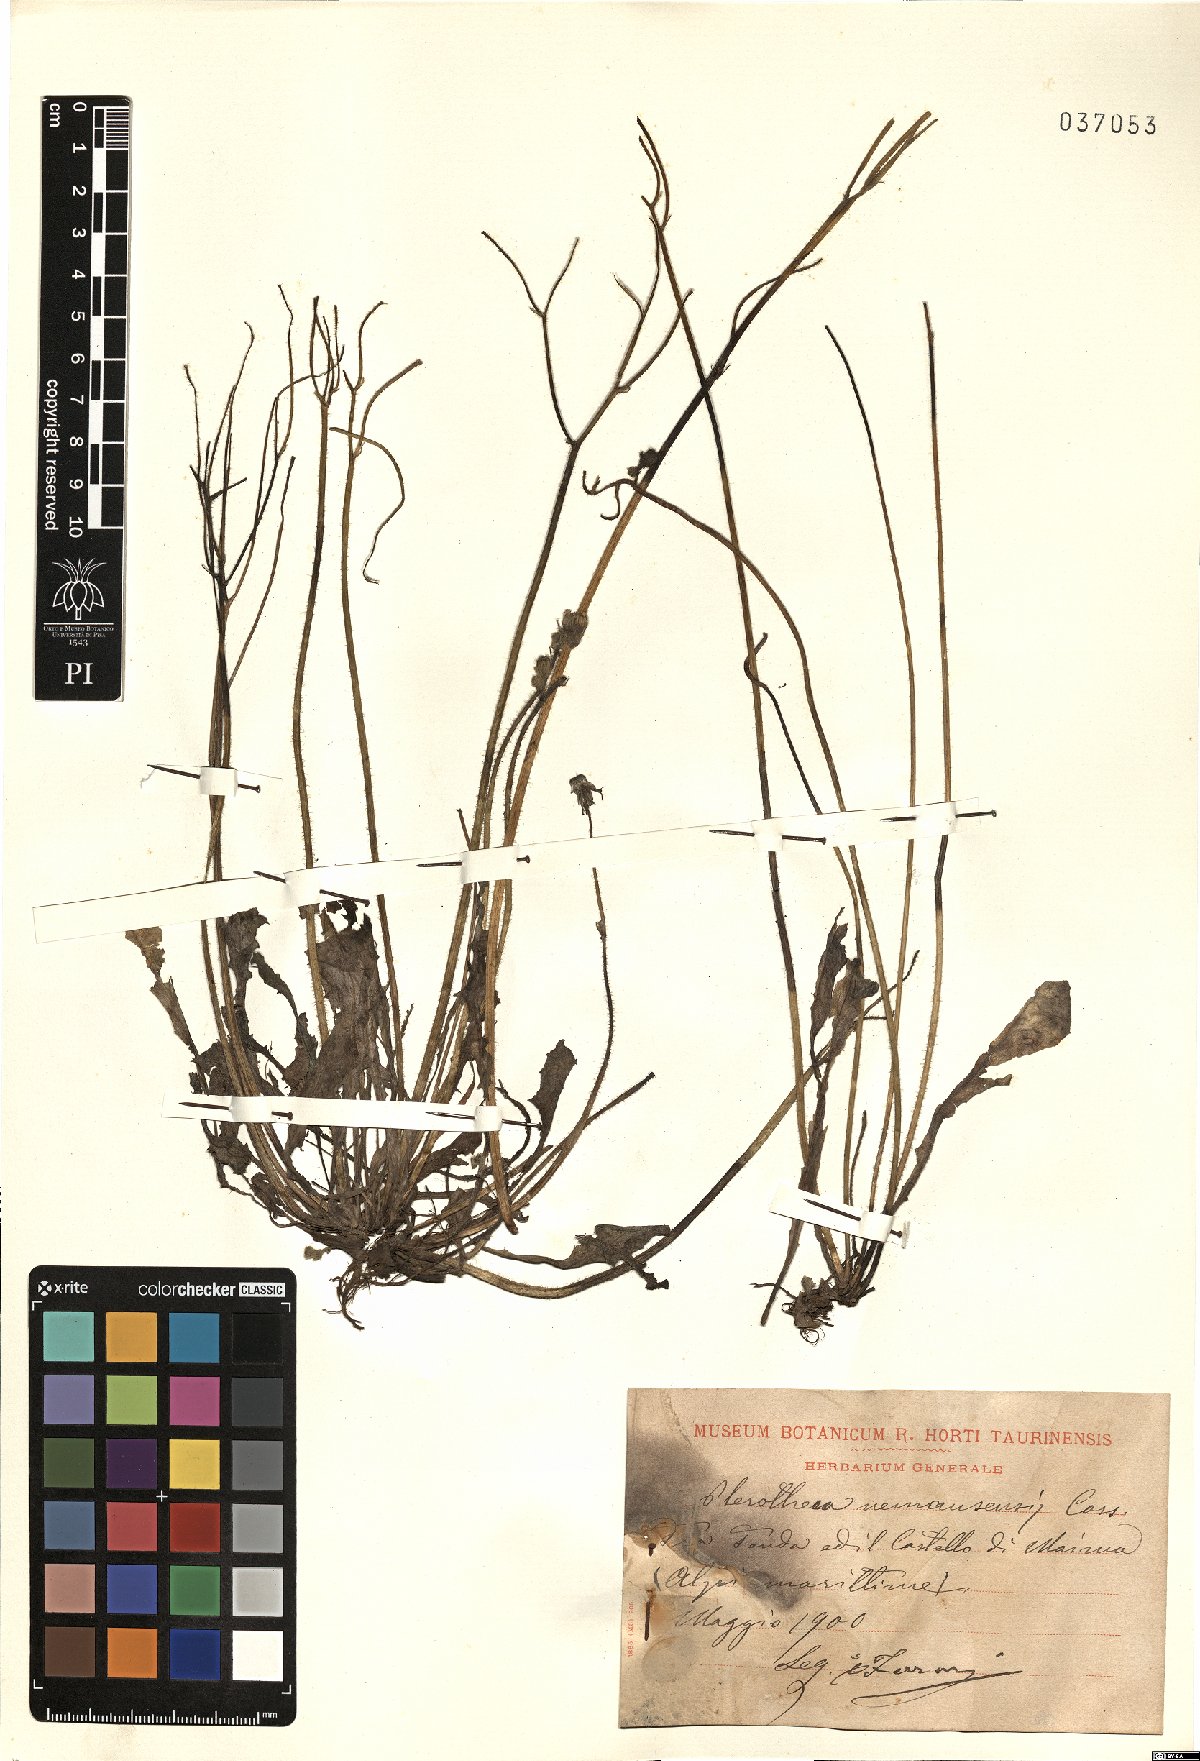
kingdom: Plantae
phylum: Tracheophyta
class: Magnoliopsida
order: Asterales
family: Asteraceae
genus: Crepis
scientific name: Crepis sancta
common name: Hawk's-beard
